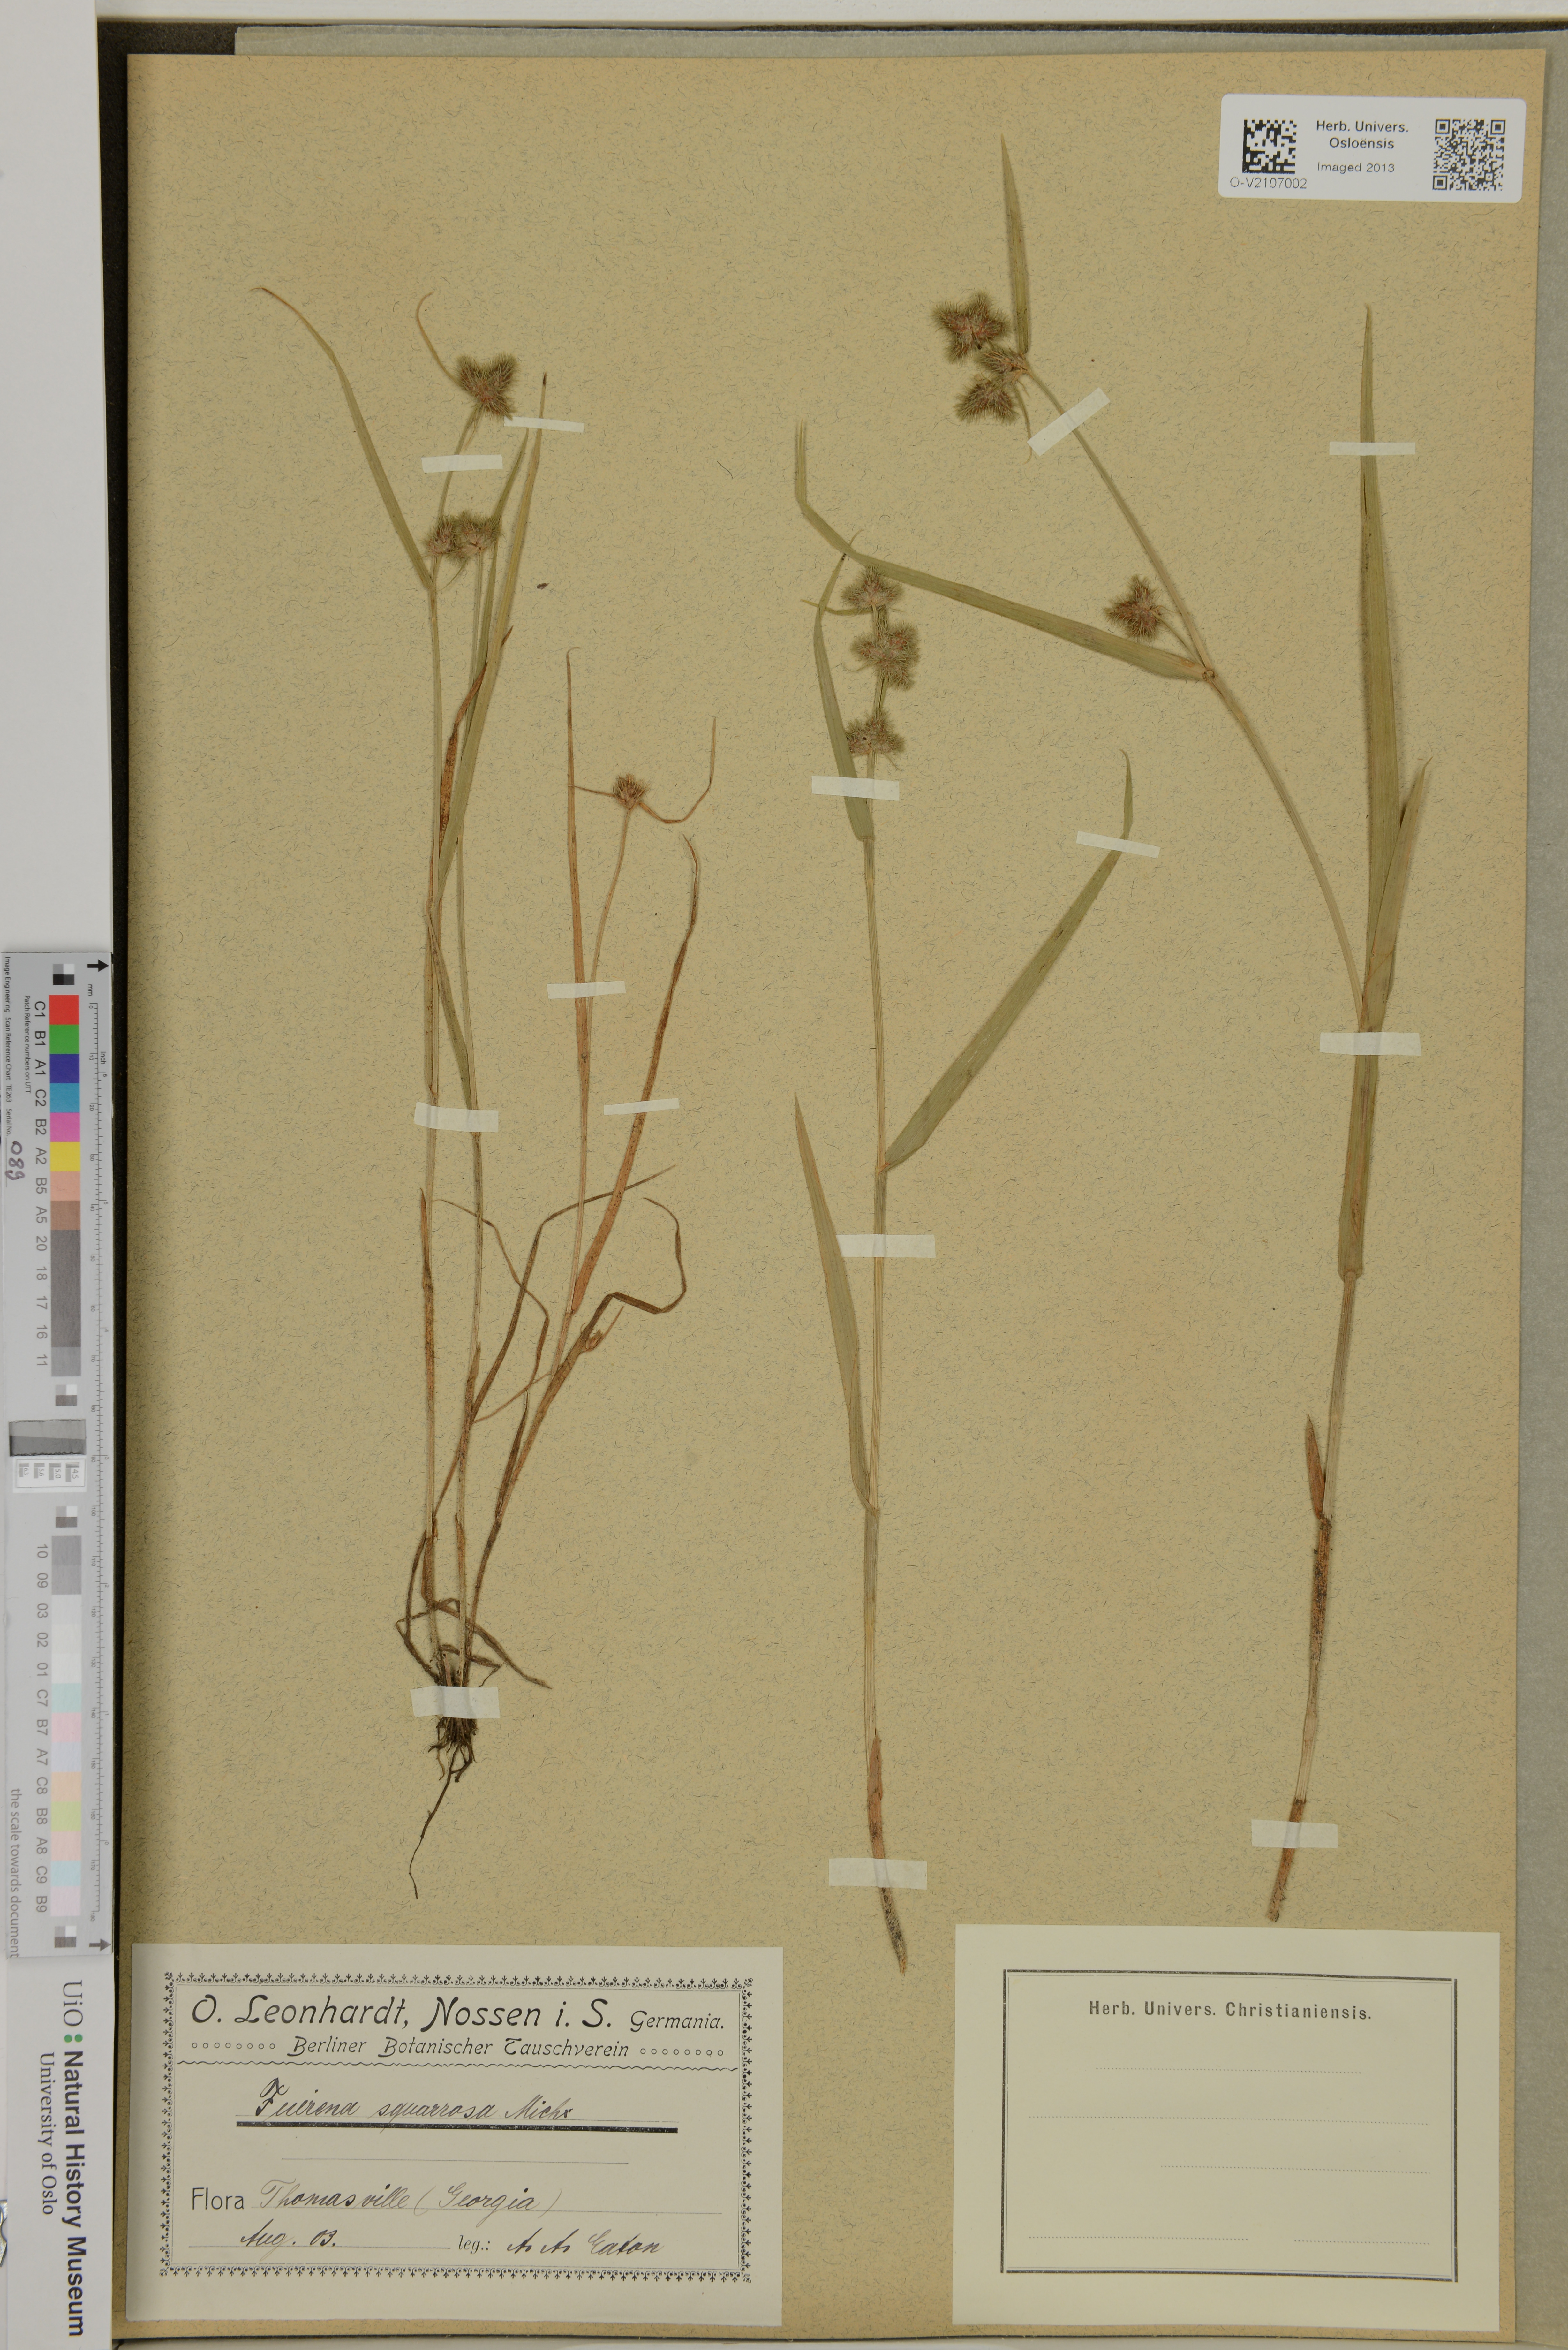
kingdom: Plantae
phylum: Tracheophyta
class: Liliopsida
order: Poales
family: Cyperaceae
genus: Fuirena
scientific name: Fuirena squarrosa
